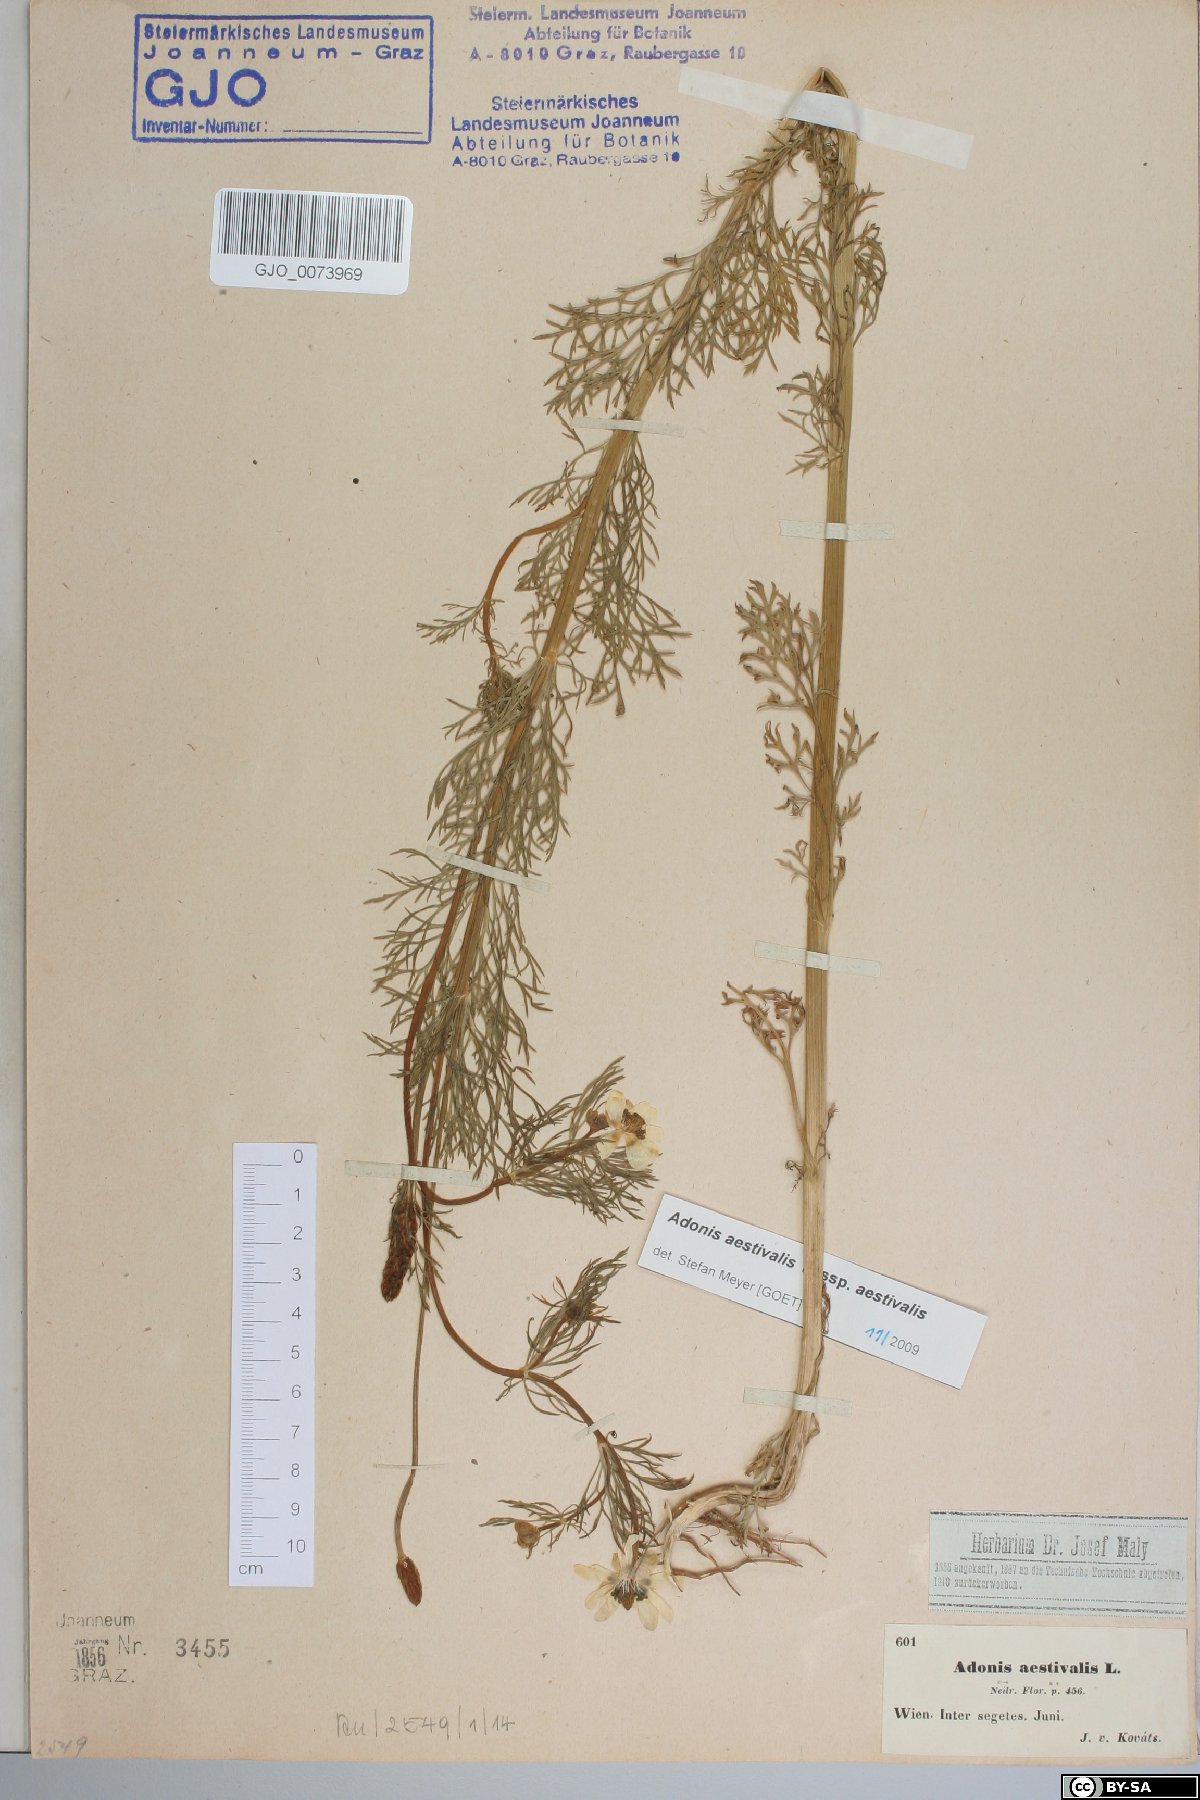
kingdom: Plantae
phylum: Tracheophyta
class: Magnoliopsida
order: Ranunculales
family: Ranunculaceae
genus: Adonis
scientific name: Adonis aestivalis
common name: Summer pheasant's-eye
